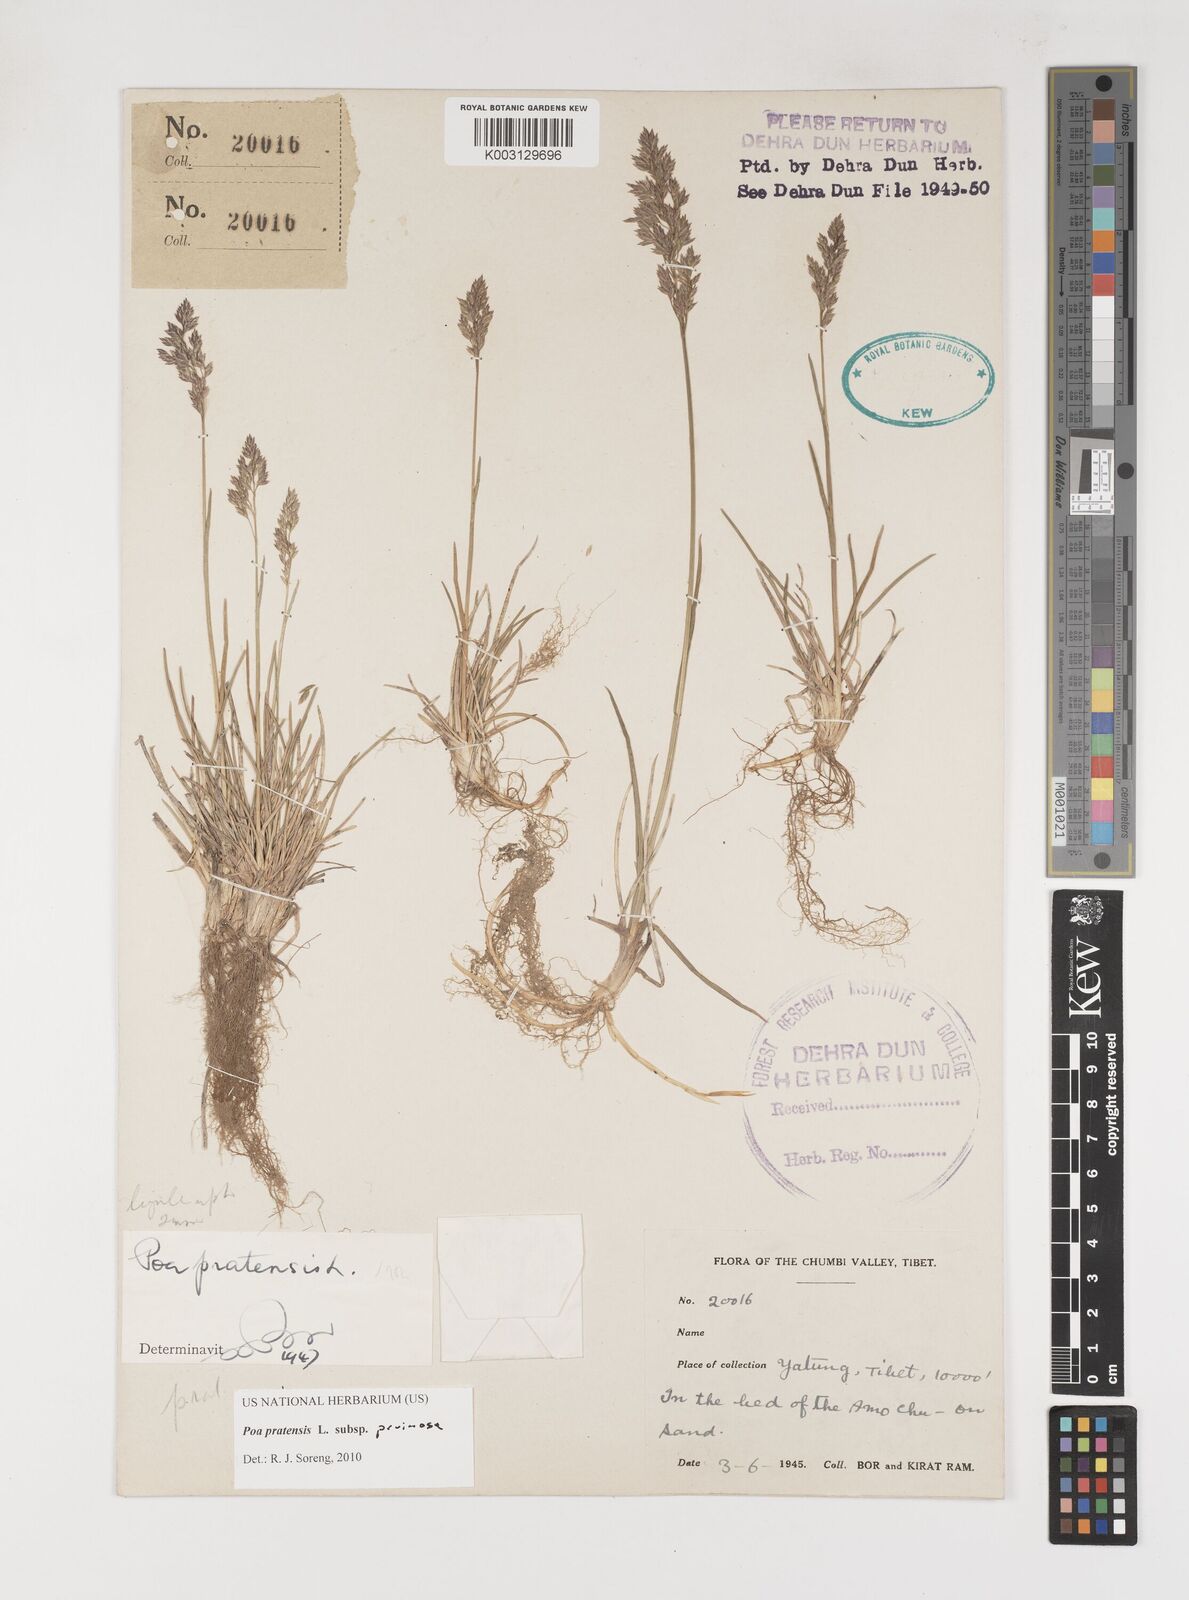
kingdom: Plantae
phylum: Tracheophyta
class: Liliopsida
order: Poales
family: Poaceae
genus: Poa
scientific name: Poa tianschanica
